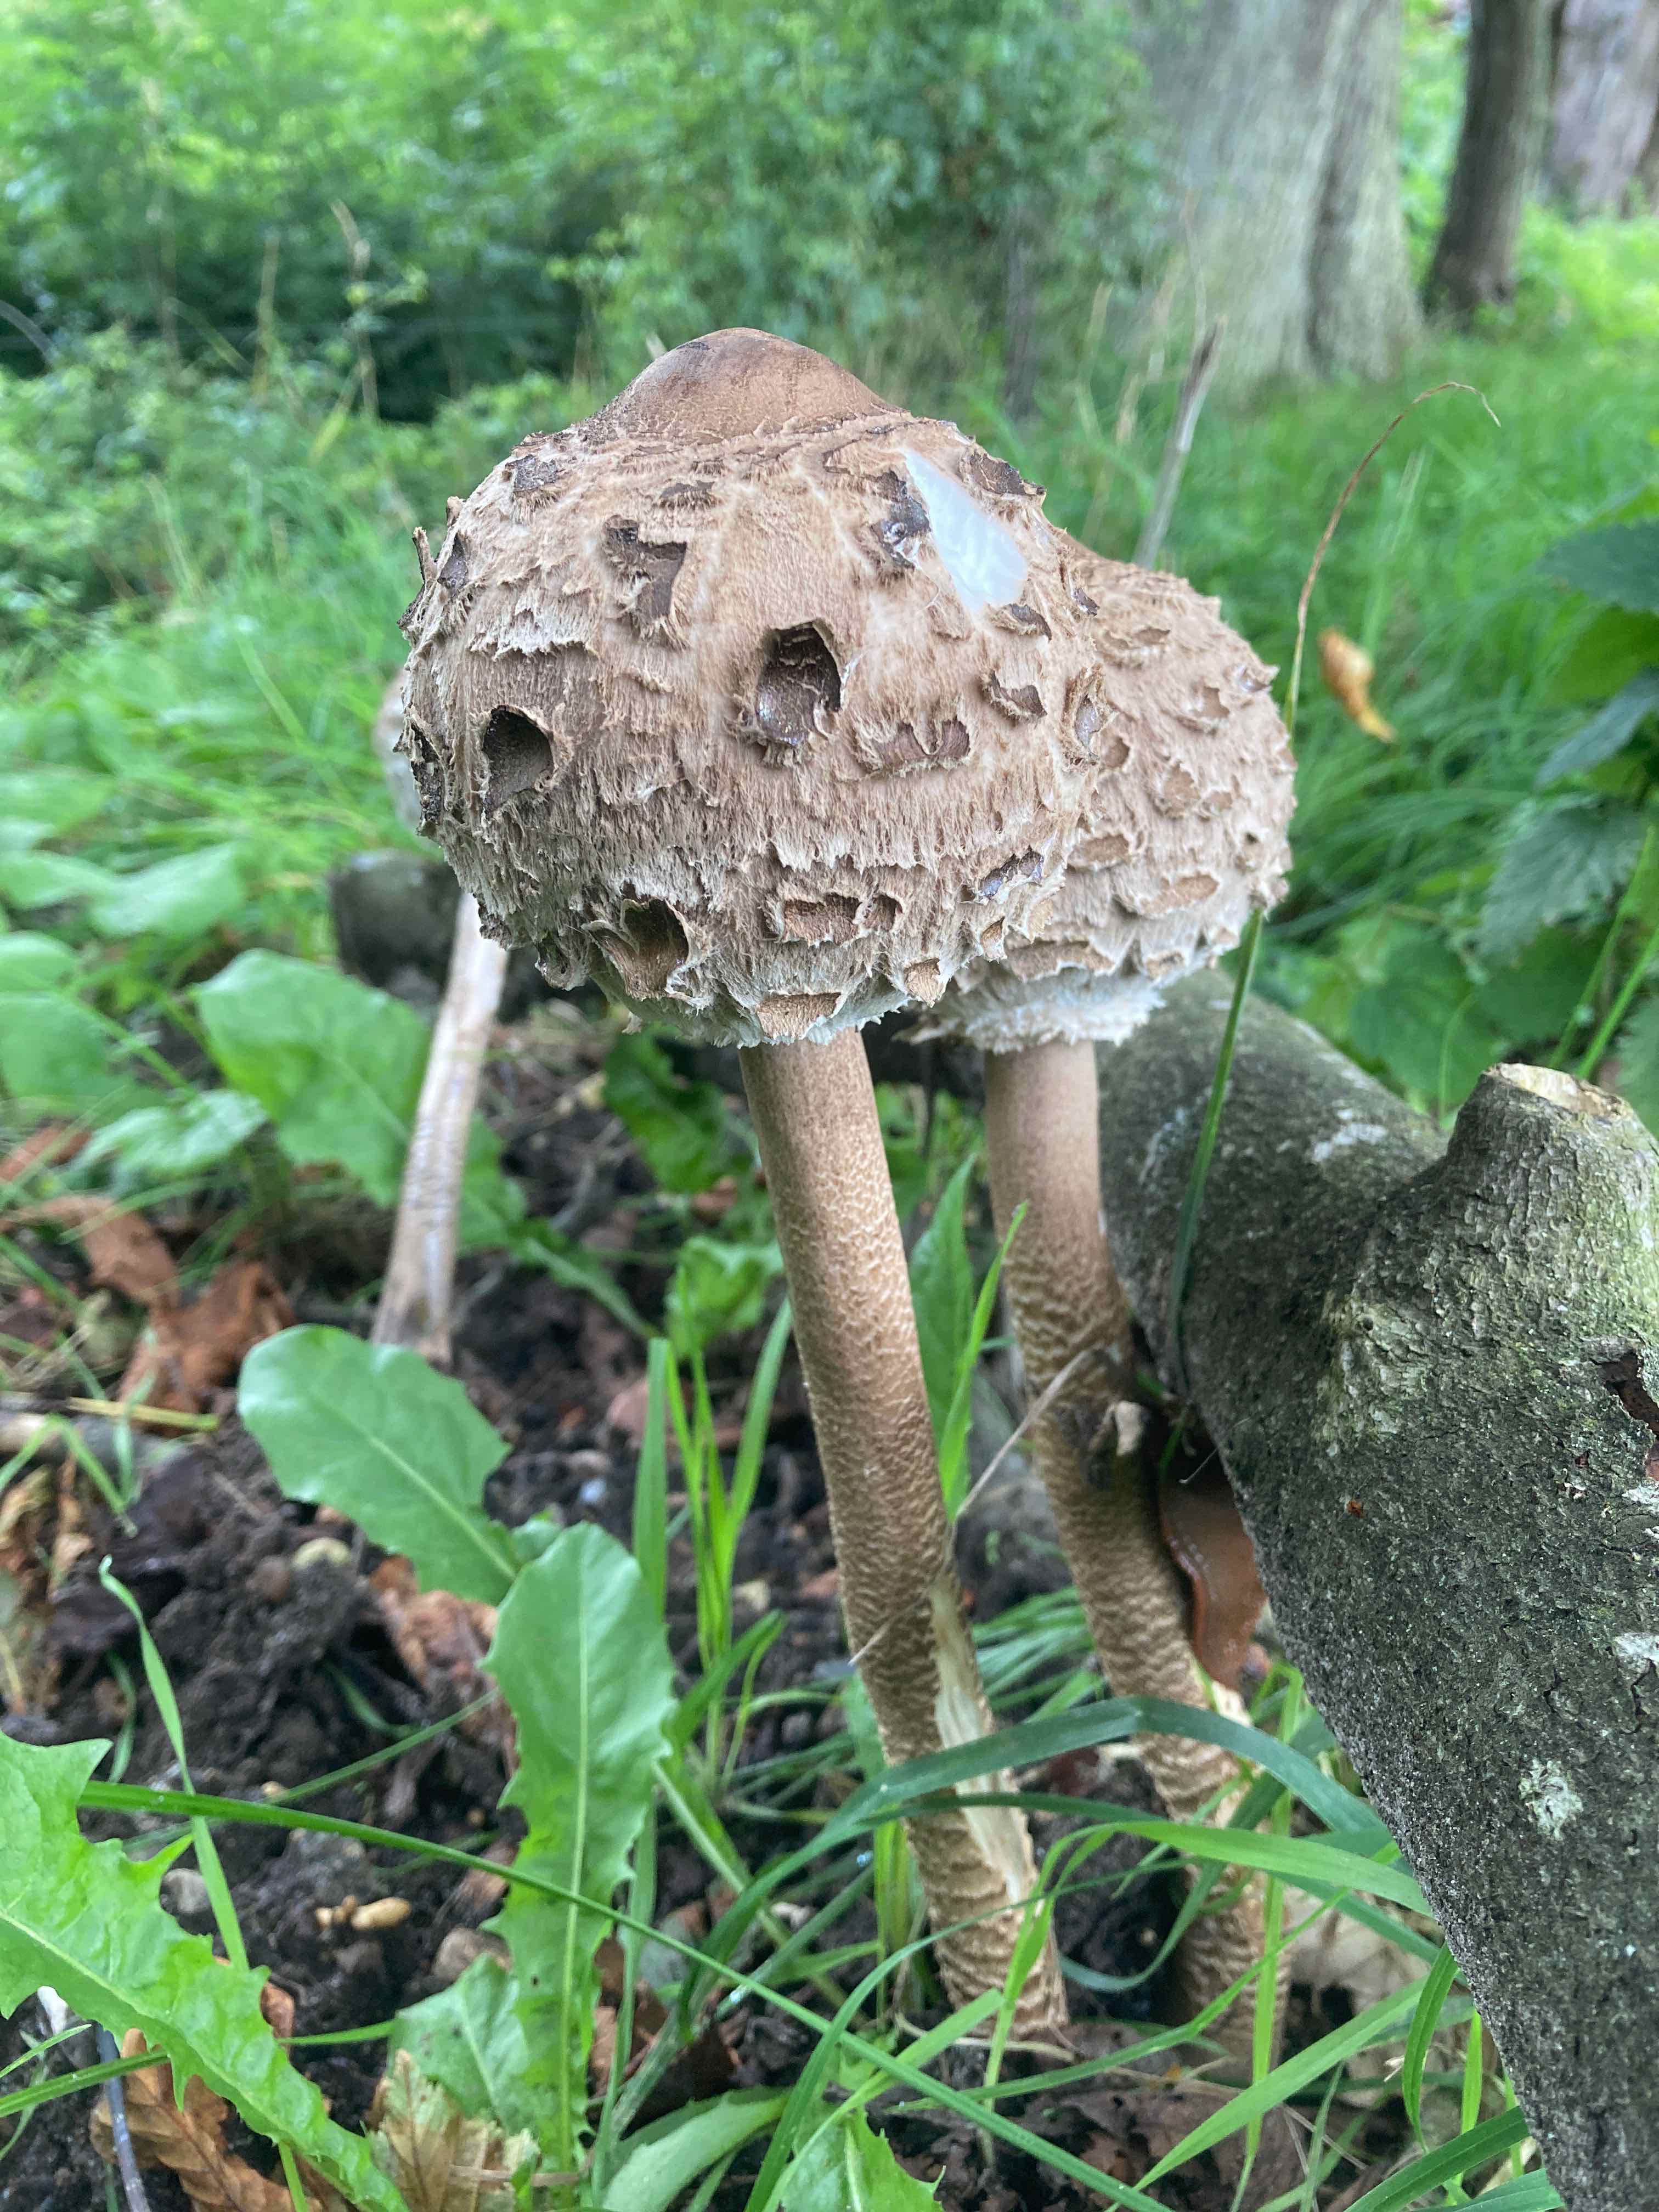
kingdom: Fungi
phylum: Basidiomycota
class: Agaricomycetes
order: Agaricales
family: Agaricaceae
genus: Macrolepiota
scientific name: Macrolepiota procera
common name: stor kæmpeparasolhat
